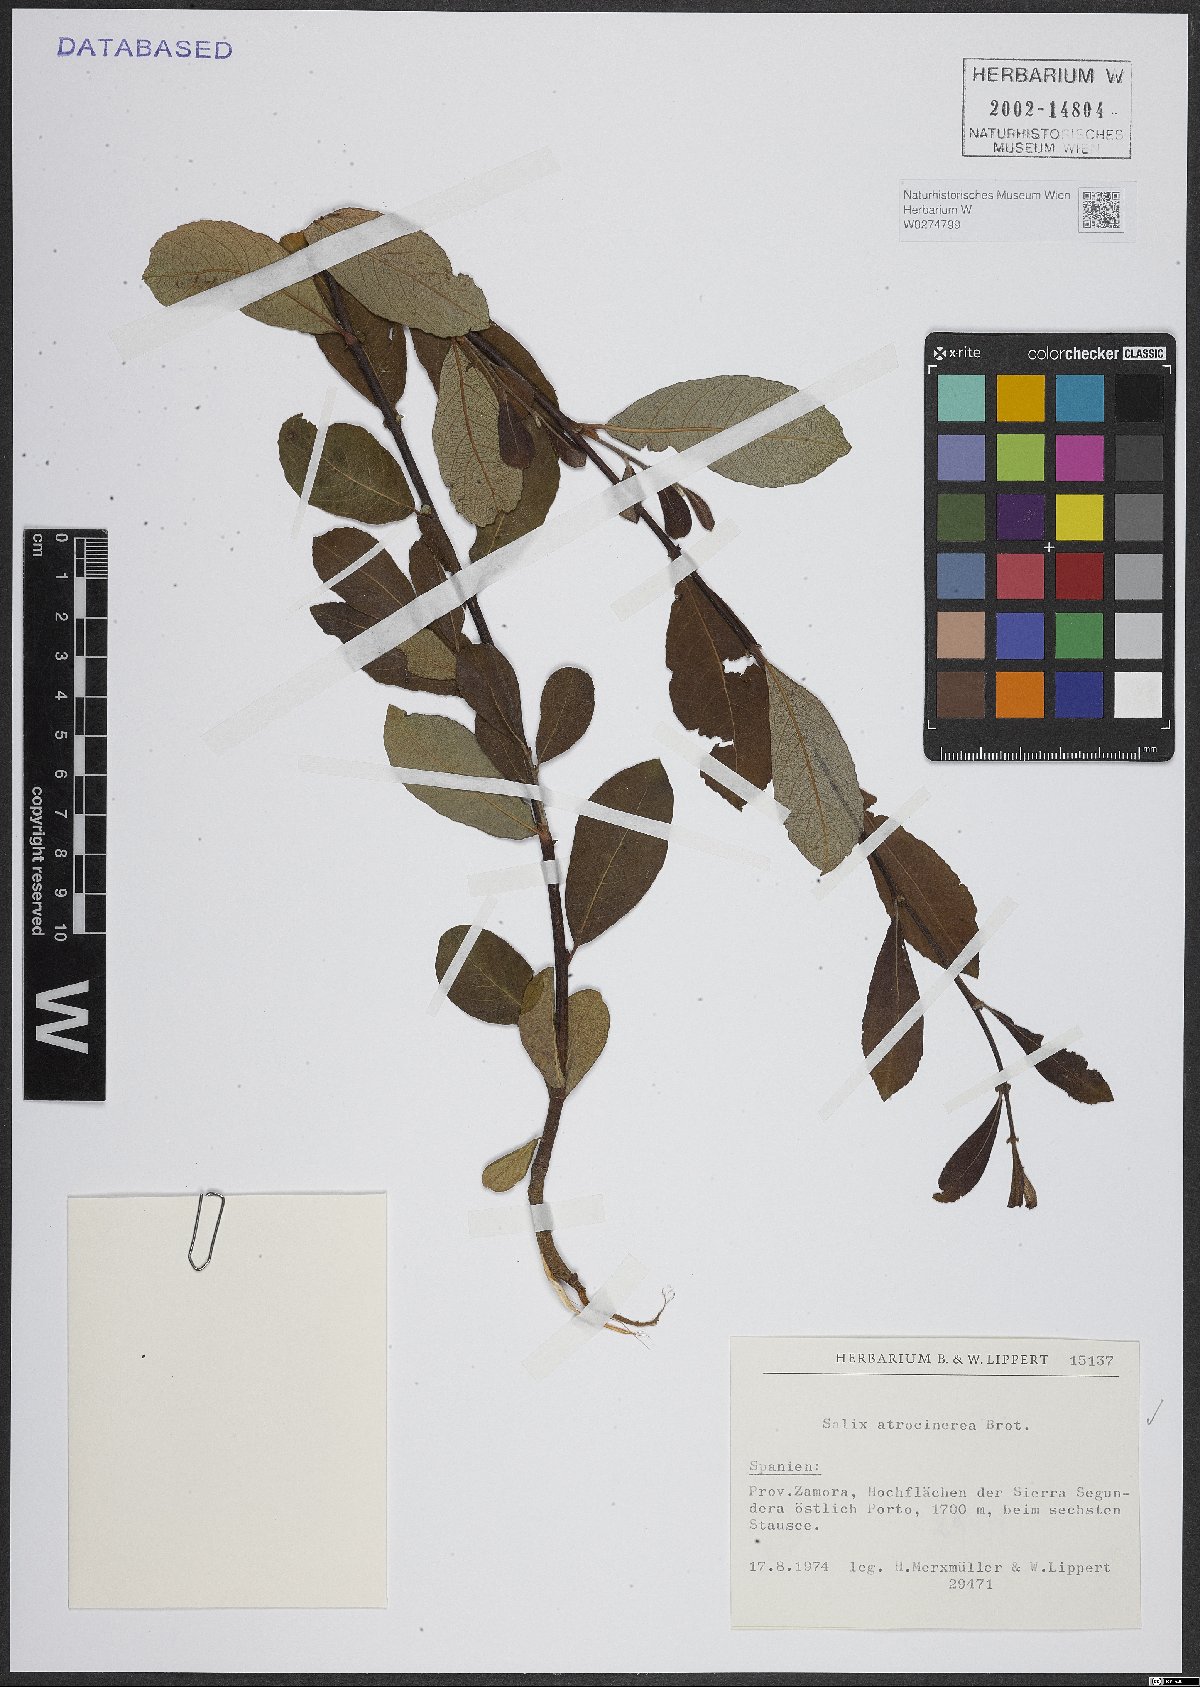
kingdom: Plantae
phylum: Tracheophyta
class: Magnoliopsida
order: Malpighiales
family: Salicaceae
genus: Salix
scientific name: Salix atrocinerea
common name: Rusty willow
